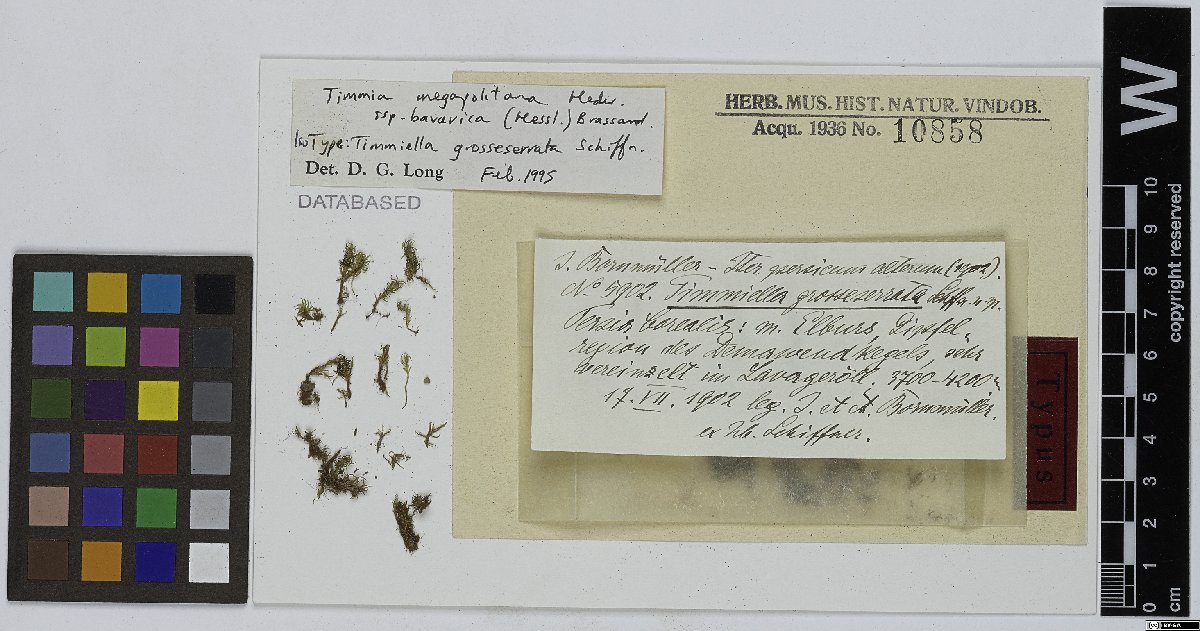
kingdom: Plantae
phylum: Bryophyta
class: Bryopsida
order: Timmiales
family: Timmiaceae
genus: Timmia
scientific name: Timmia bavarica
